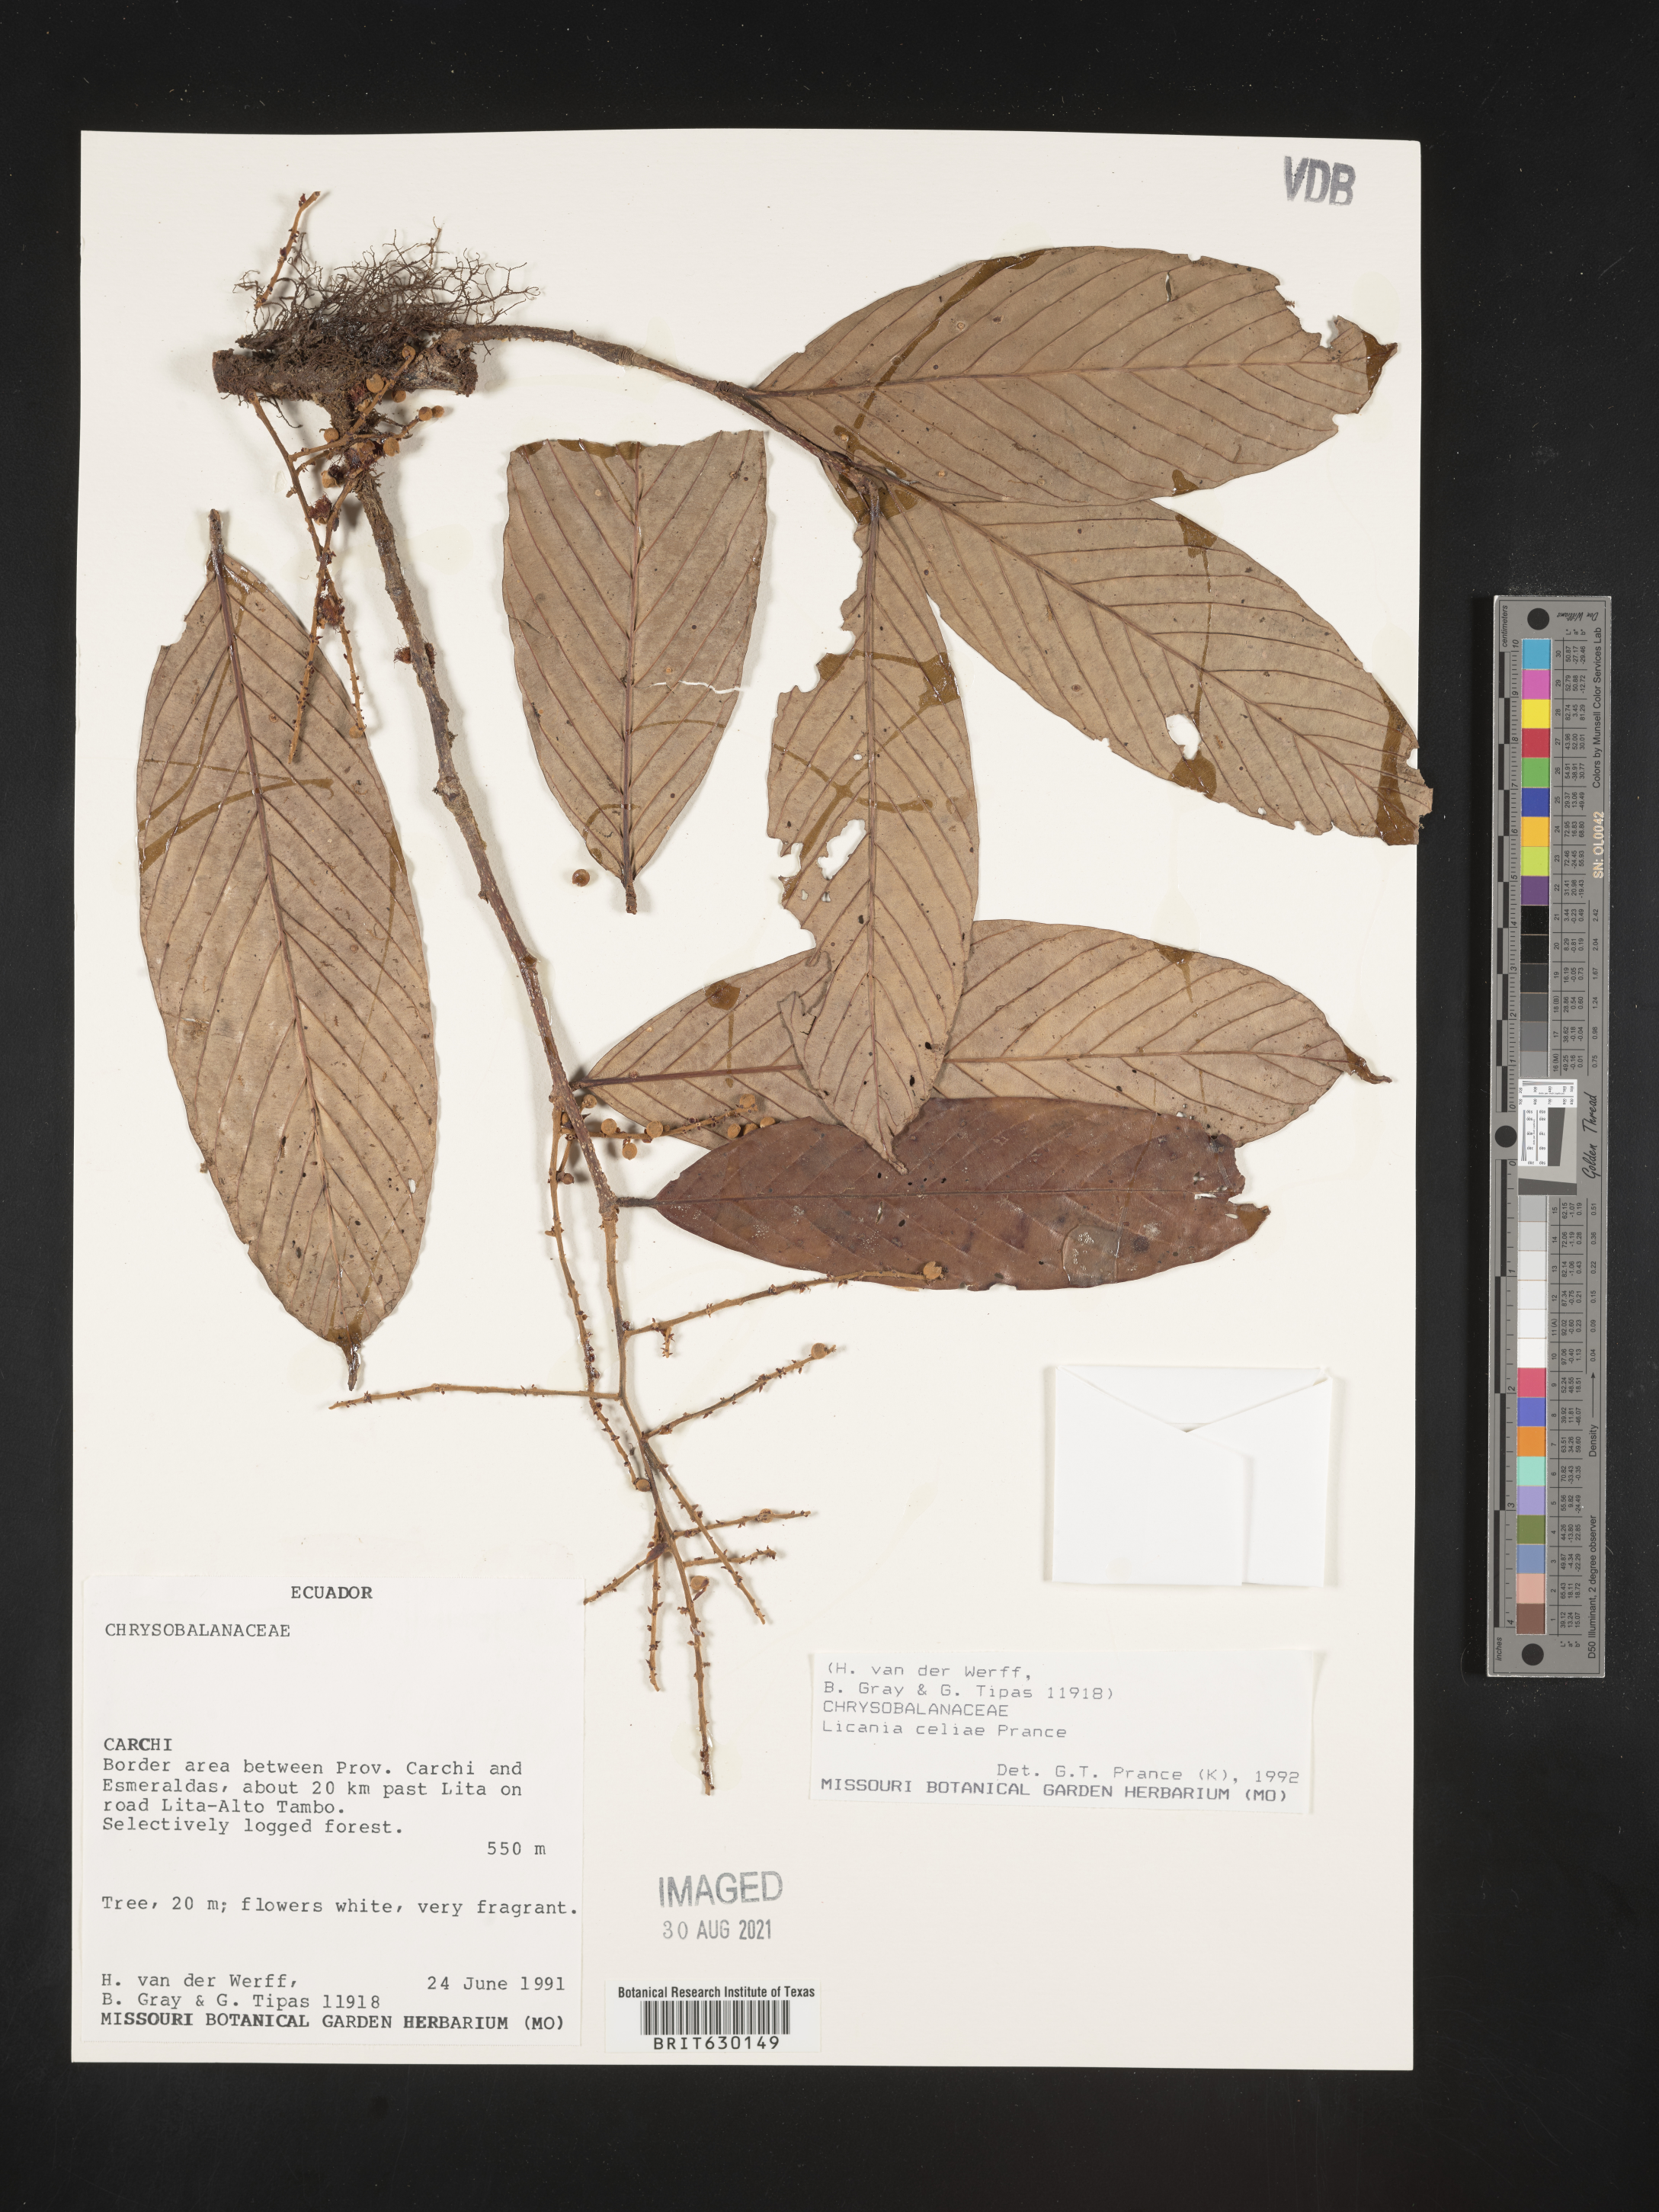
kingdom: Plantae
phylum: Tracheophyta
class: Magnoliopsida
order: Malpighiales
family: Chrysobalanaceae
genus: Moquilea
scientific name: Moquilea celiae
